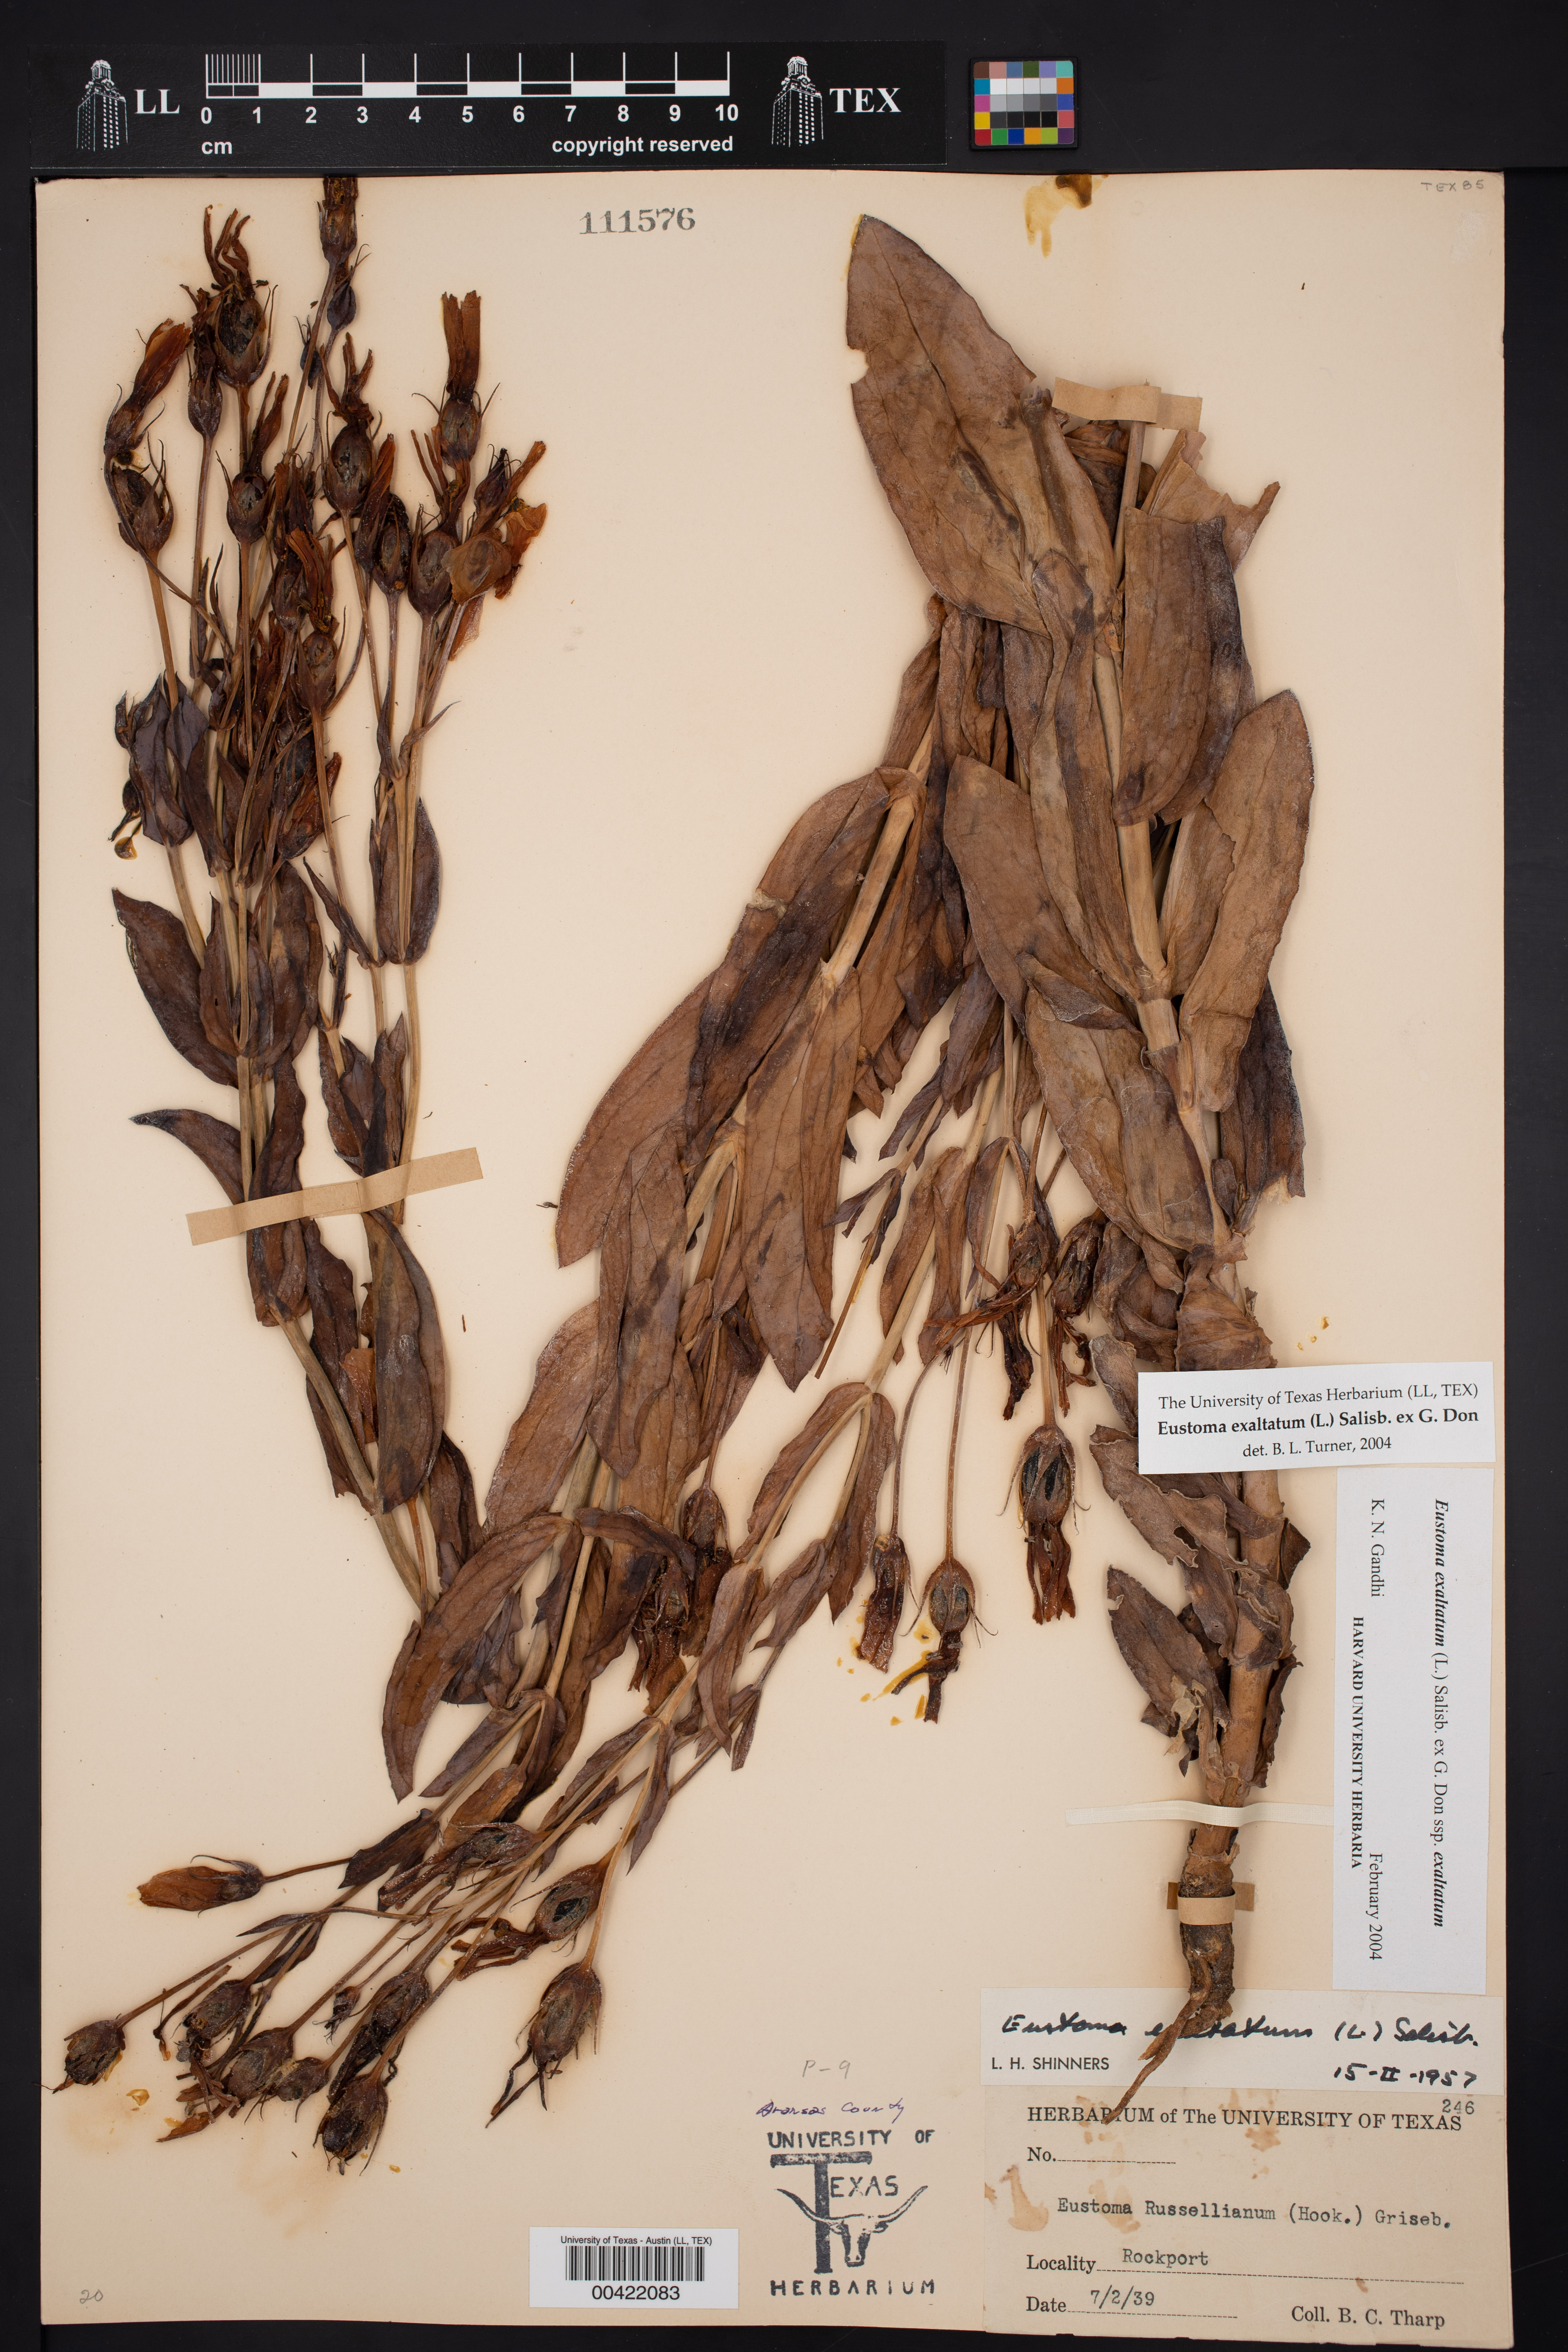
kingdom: Plantae
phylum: Tracheophyta
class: Magnoliopsida
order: Gentianales
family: Gentianaceae
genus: Eustoma
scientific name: Eustoma exaltatum
